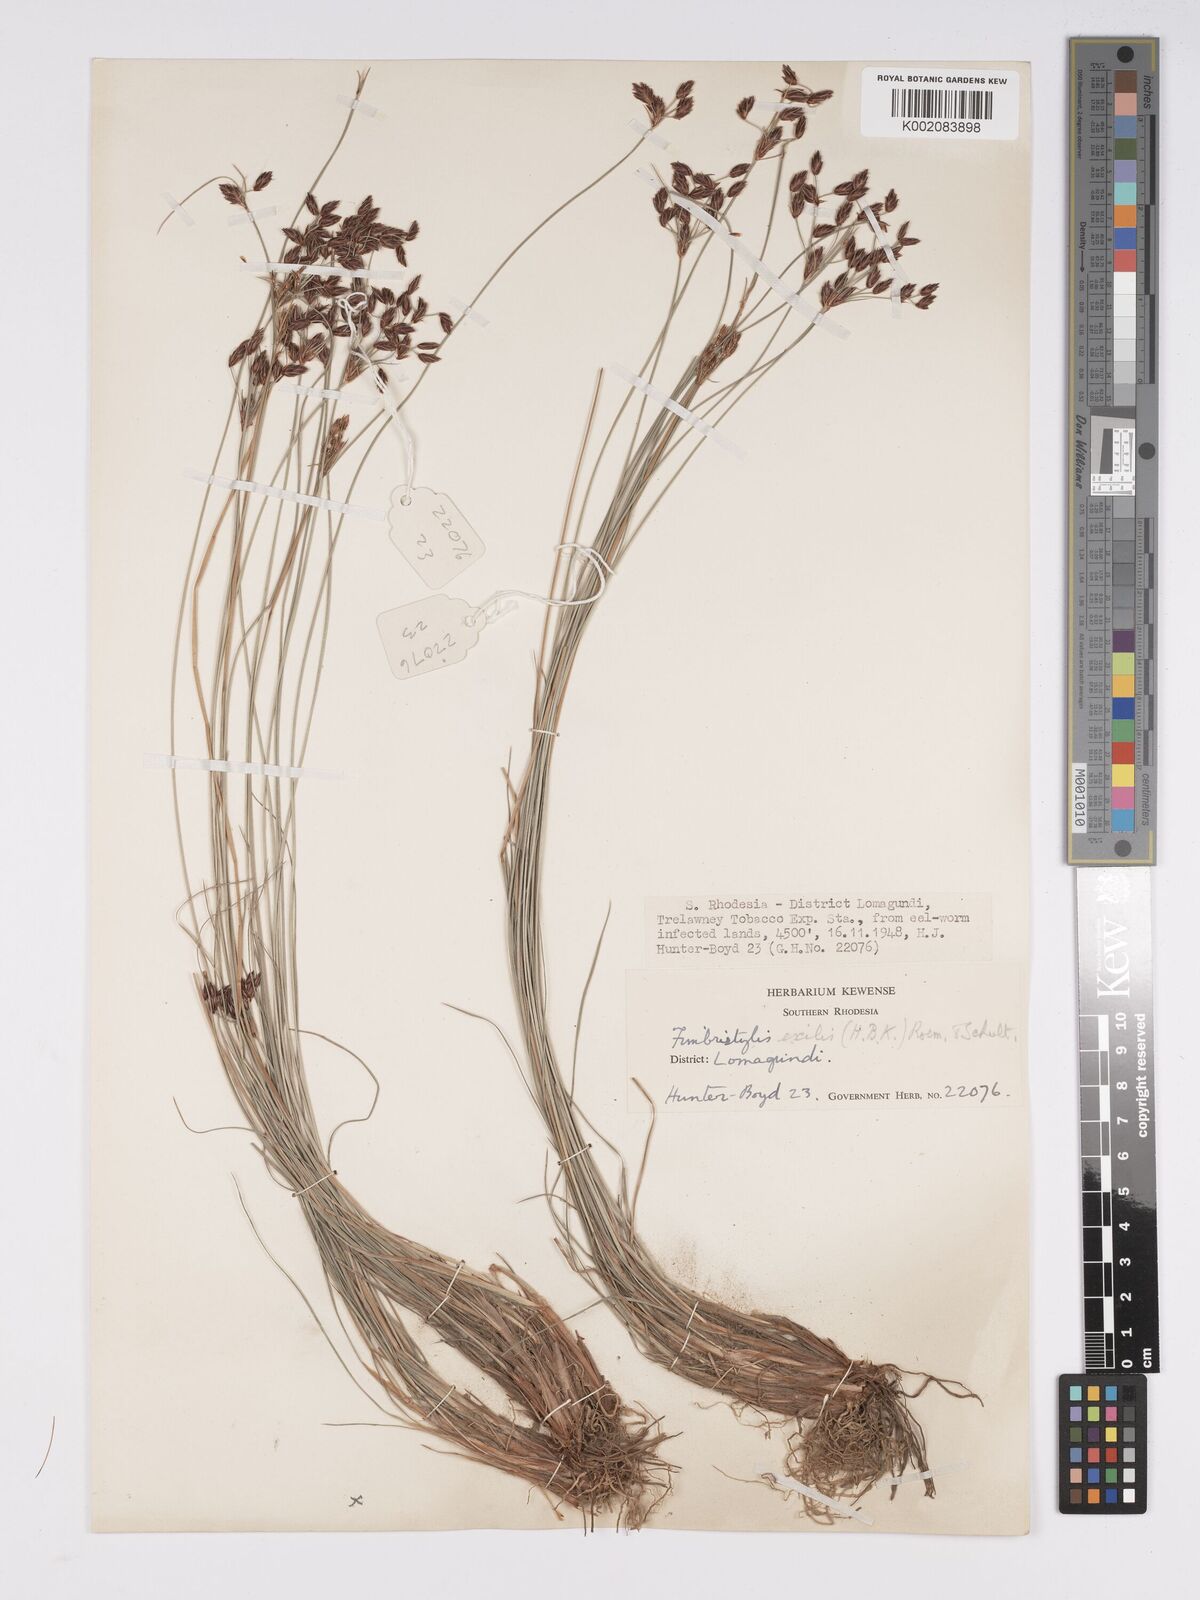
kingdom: Plantae
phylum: Tracheophyta
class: Liliopsida
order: Poales
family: Cyperaceae
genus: Bulbostylis
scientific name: Bulbostylis hispidula
